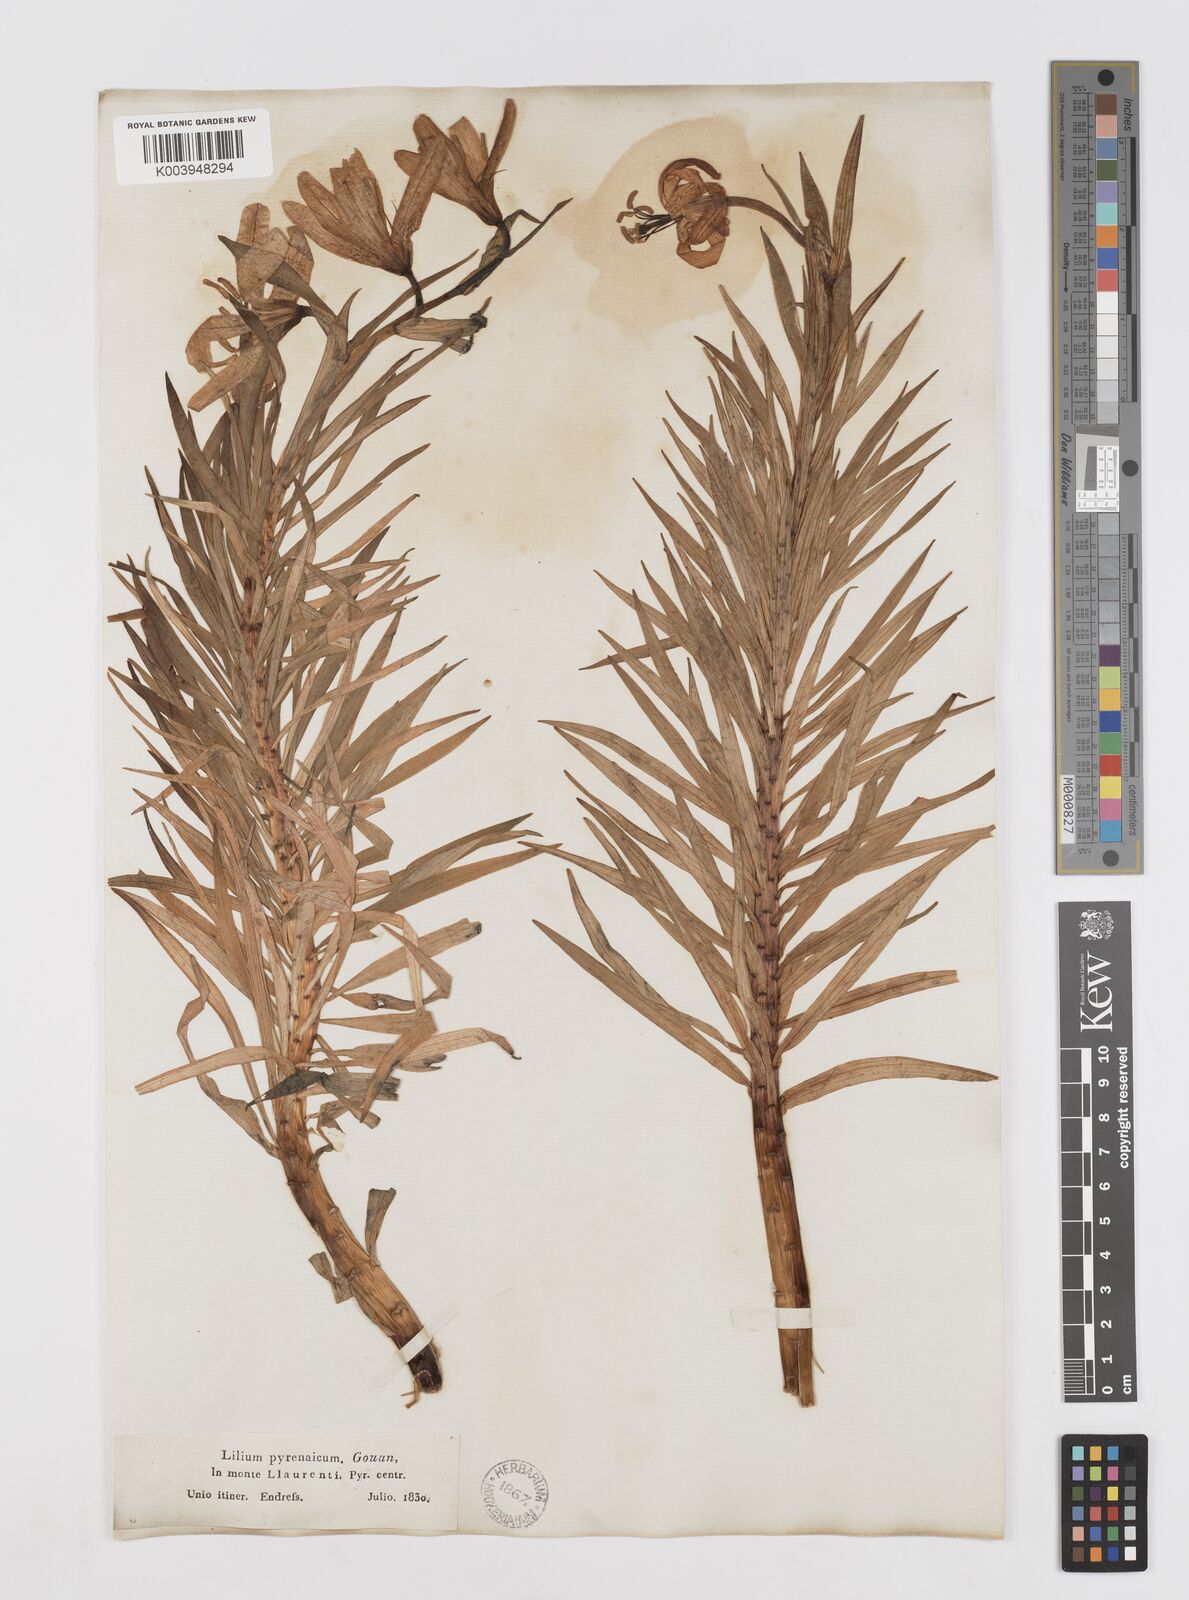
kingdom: Plantae
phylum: Tracheophyta
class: Liliopsida
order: Liliales
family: Liliaceae
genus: Lilium
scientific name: Lilium pyrenaicum
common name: Pyrenean lily
